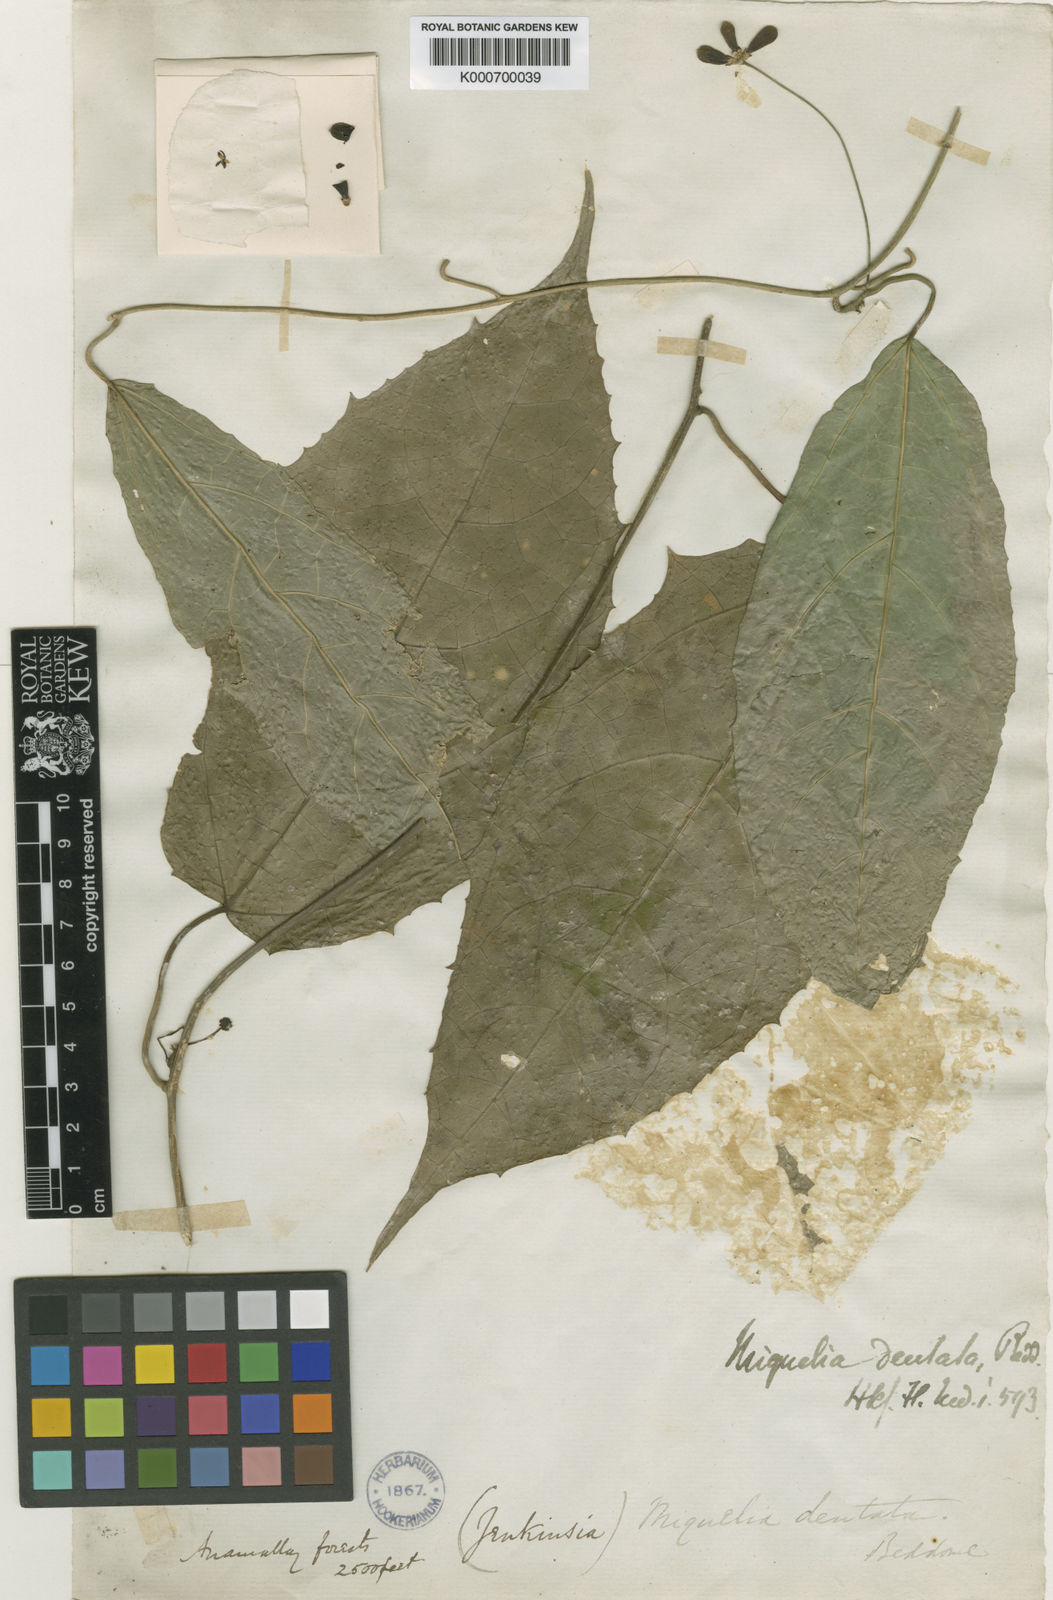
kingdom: Plantae
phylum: Tracheophyta
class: Magnoliopsida
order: Icacinales
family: Icacinaceae
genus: Miquelia
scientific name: Miquelia dentata
